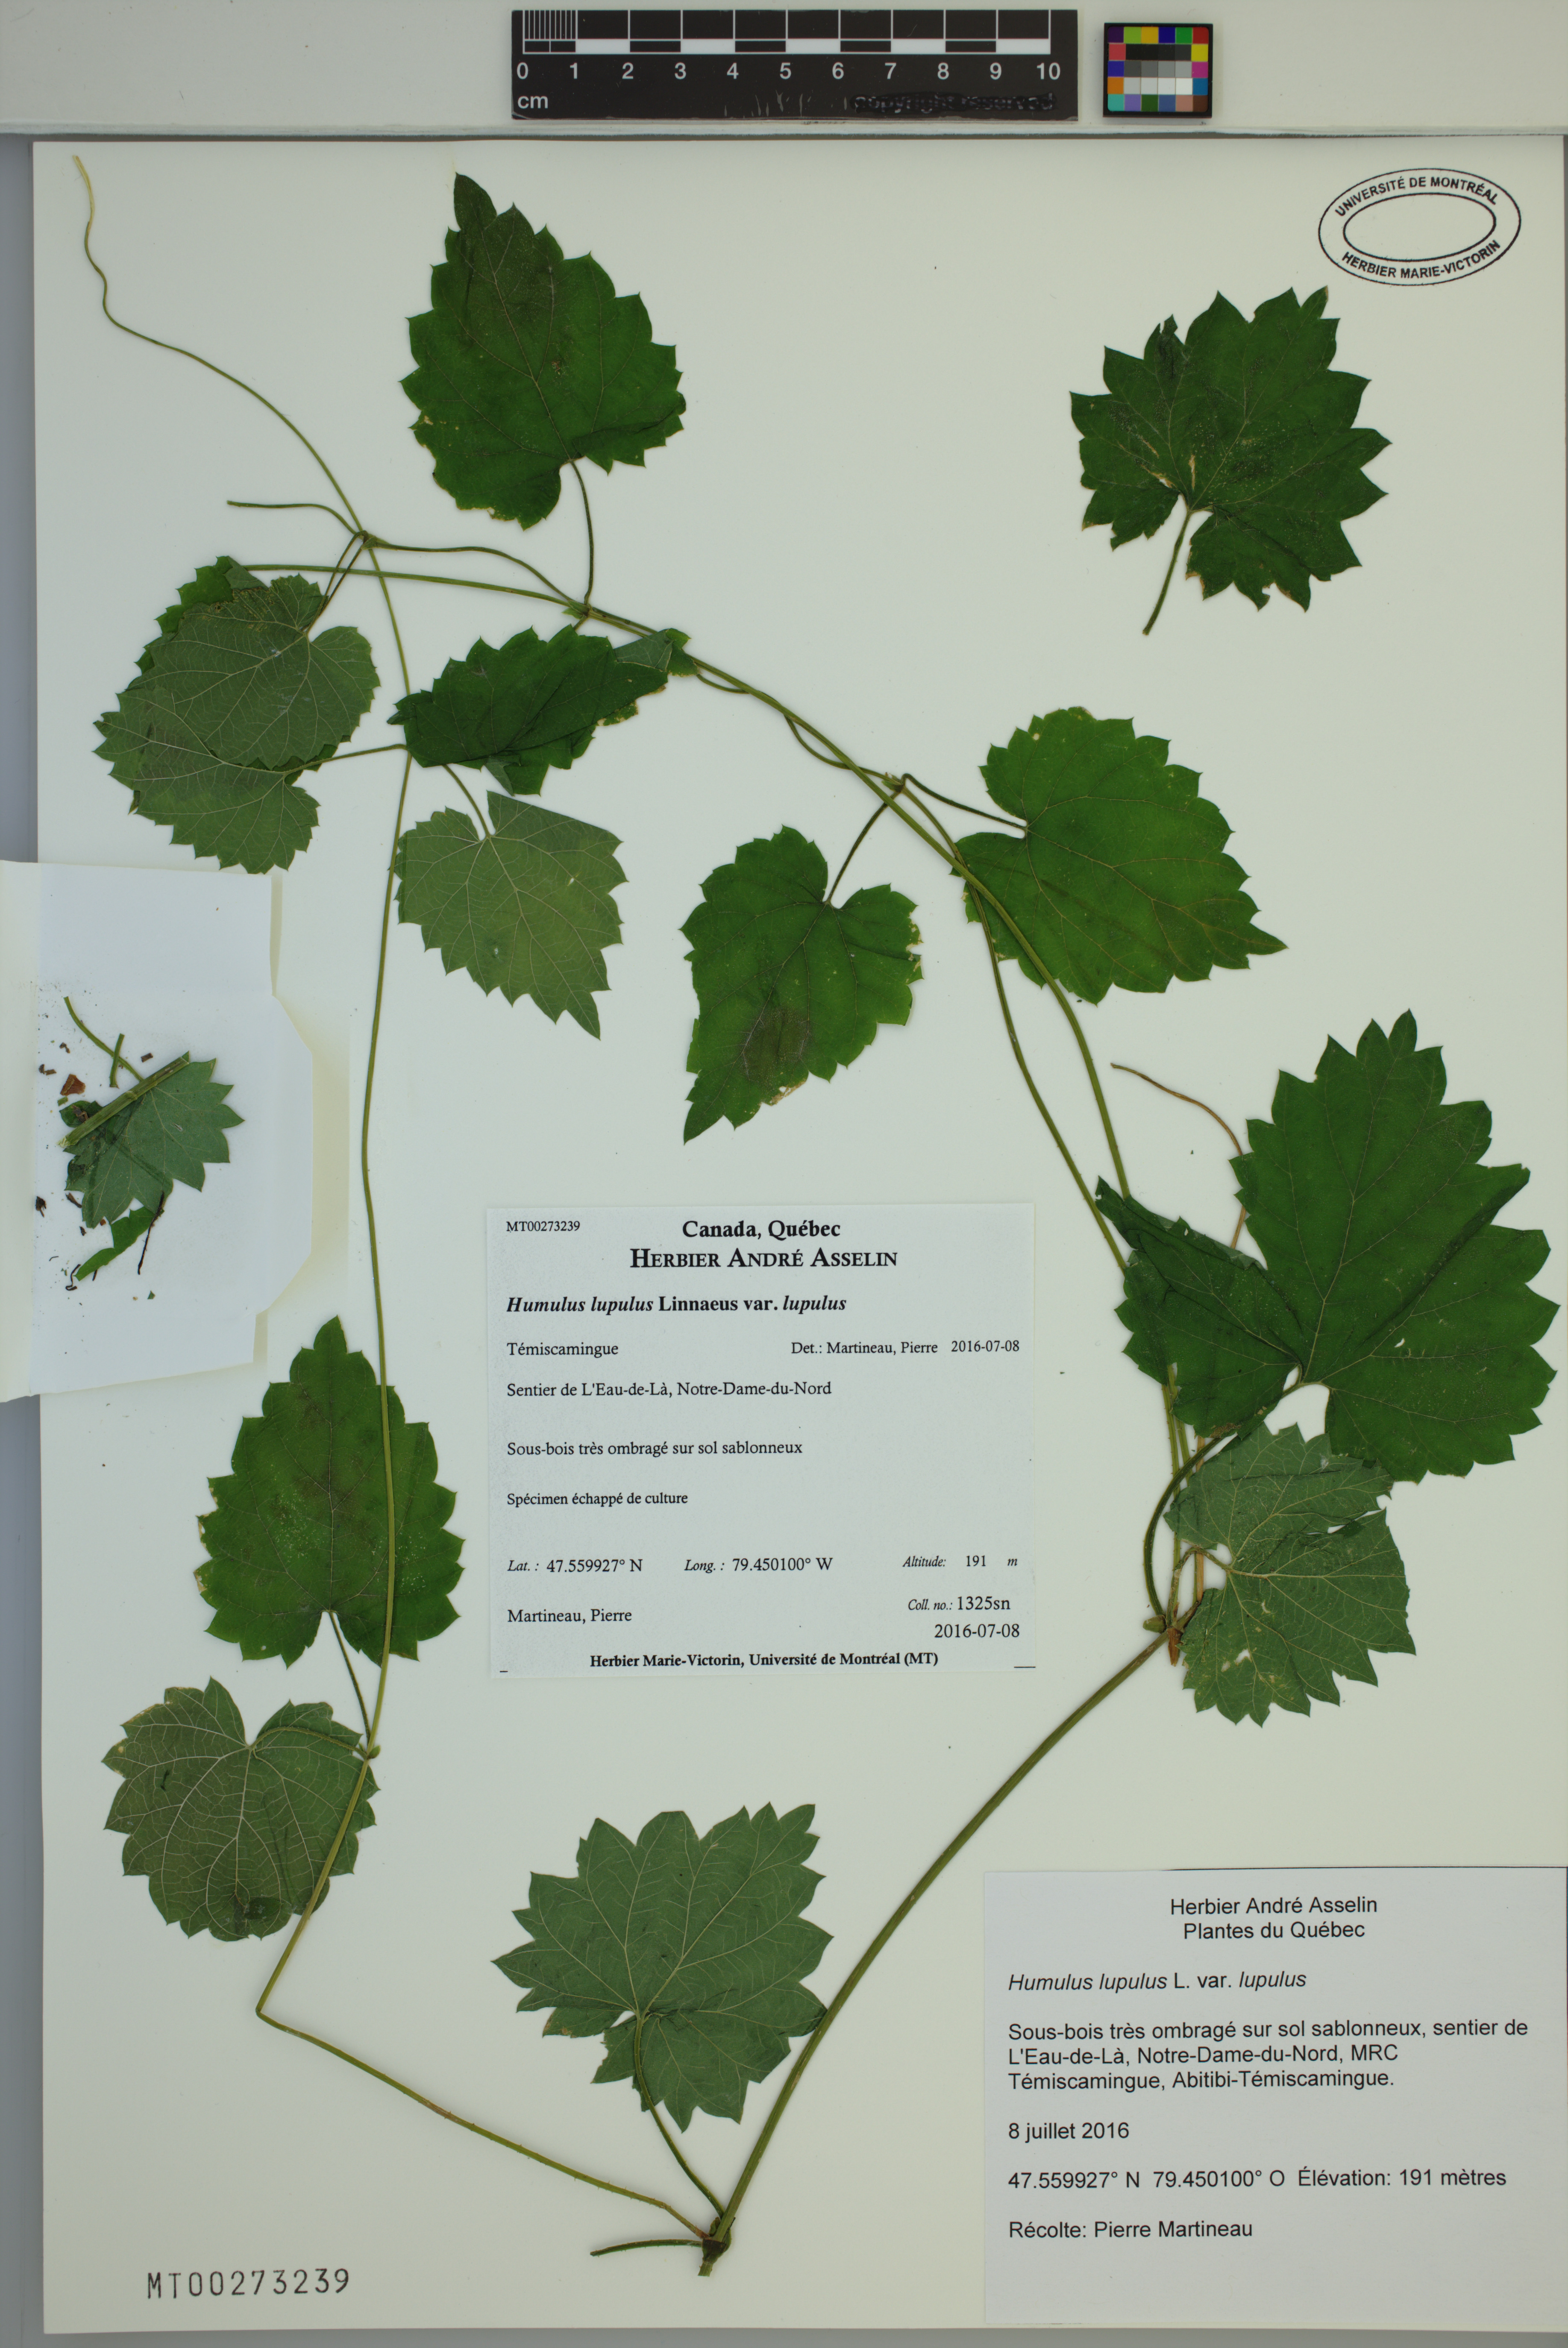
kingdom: Plantae
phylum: Tracheophyta
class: Magnoliopsida
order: Rosales
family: Cannabaceae
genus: Humulus
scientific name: Humulus lupulus
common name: Hop
